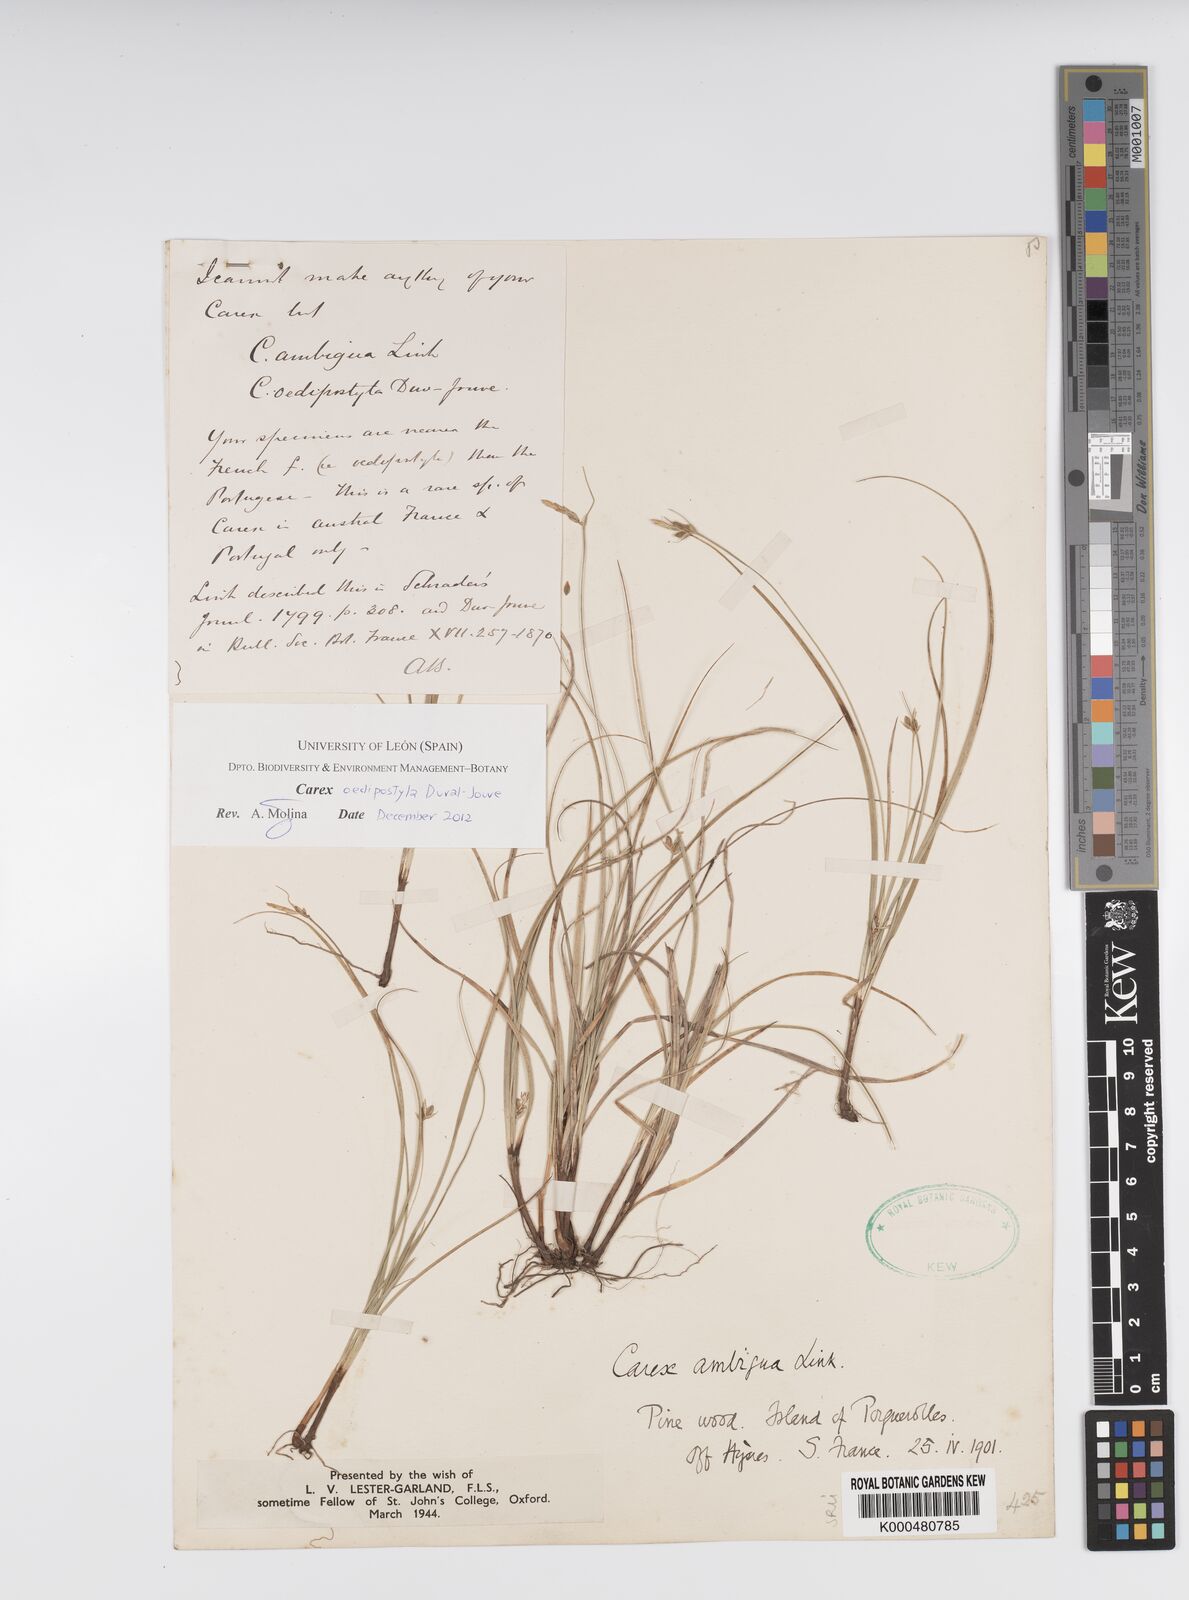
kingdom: Plantae
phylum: Tracheophyta
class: Liliopsida
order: Poales
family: Cyperaceae
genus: Carex
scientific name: Carex
